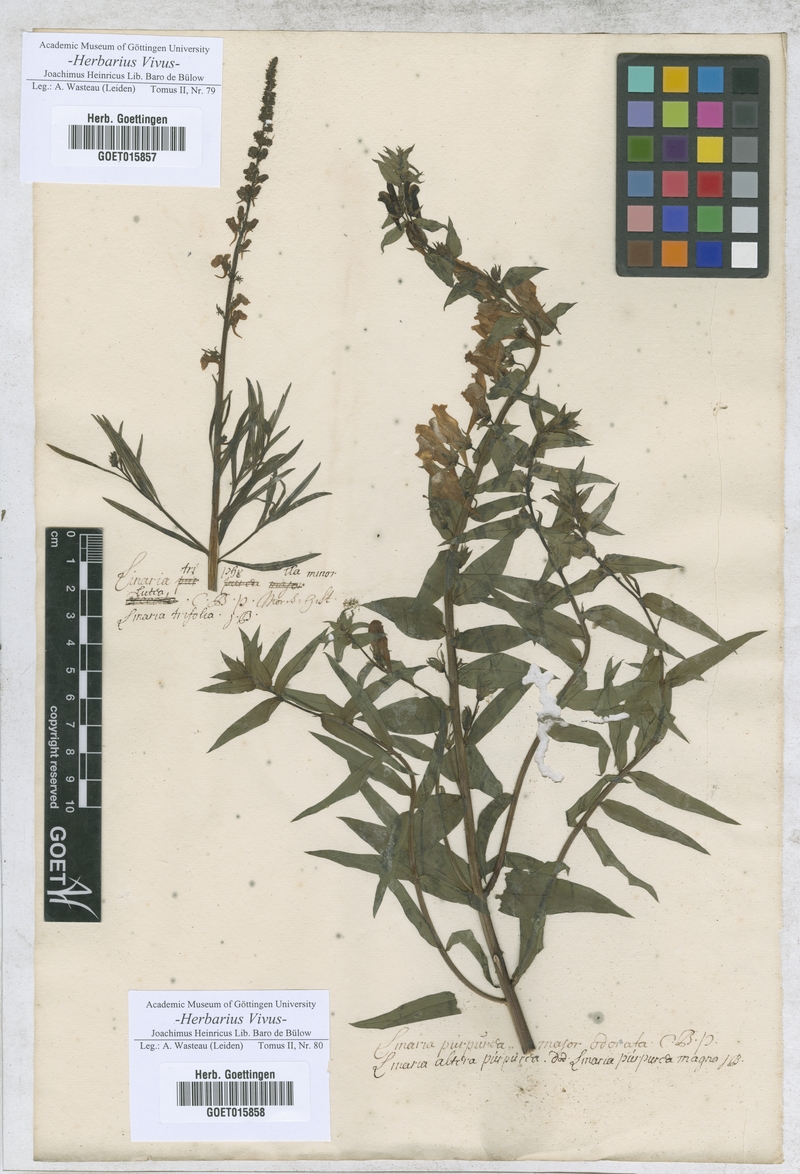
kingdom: Plantae
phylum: Tracheophyta
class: Magnoliopsida
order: Lamiales
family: Plantaginaceae
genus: Linaria
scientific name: Linaria triphylla
